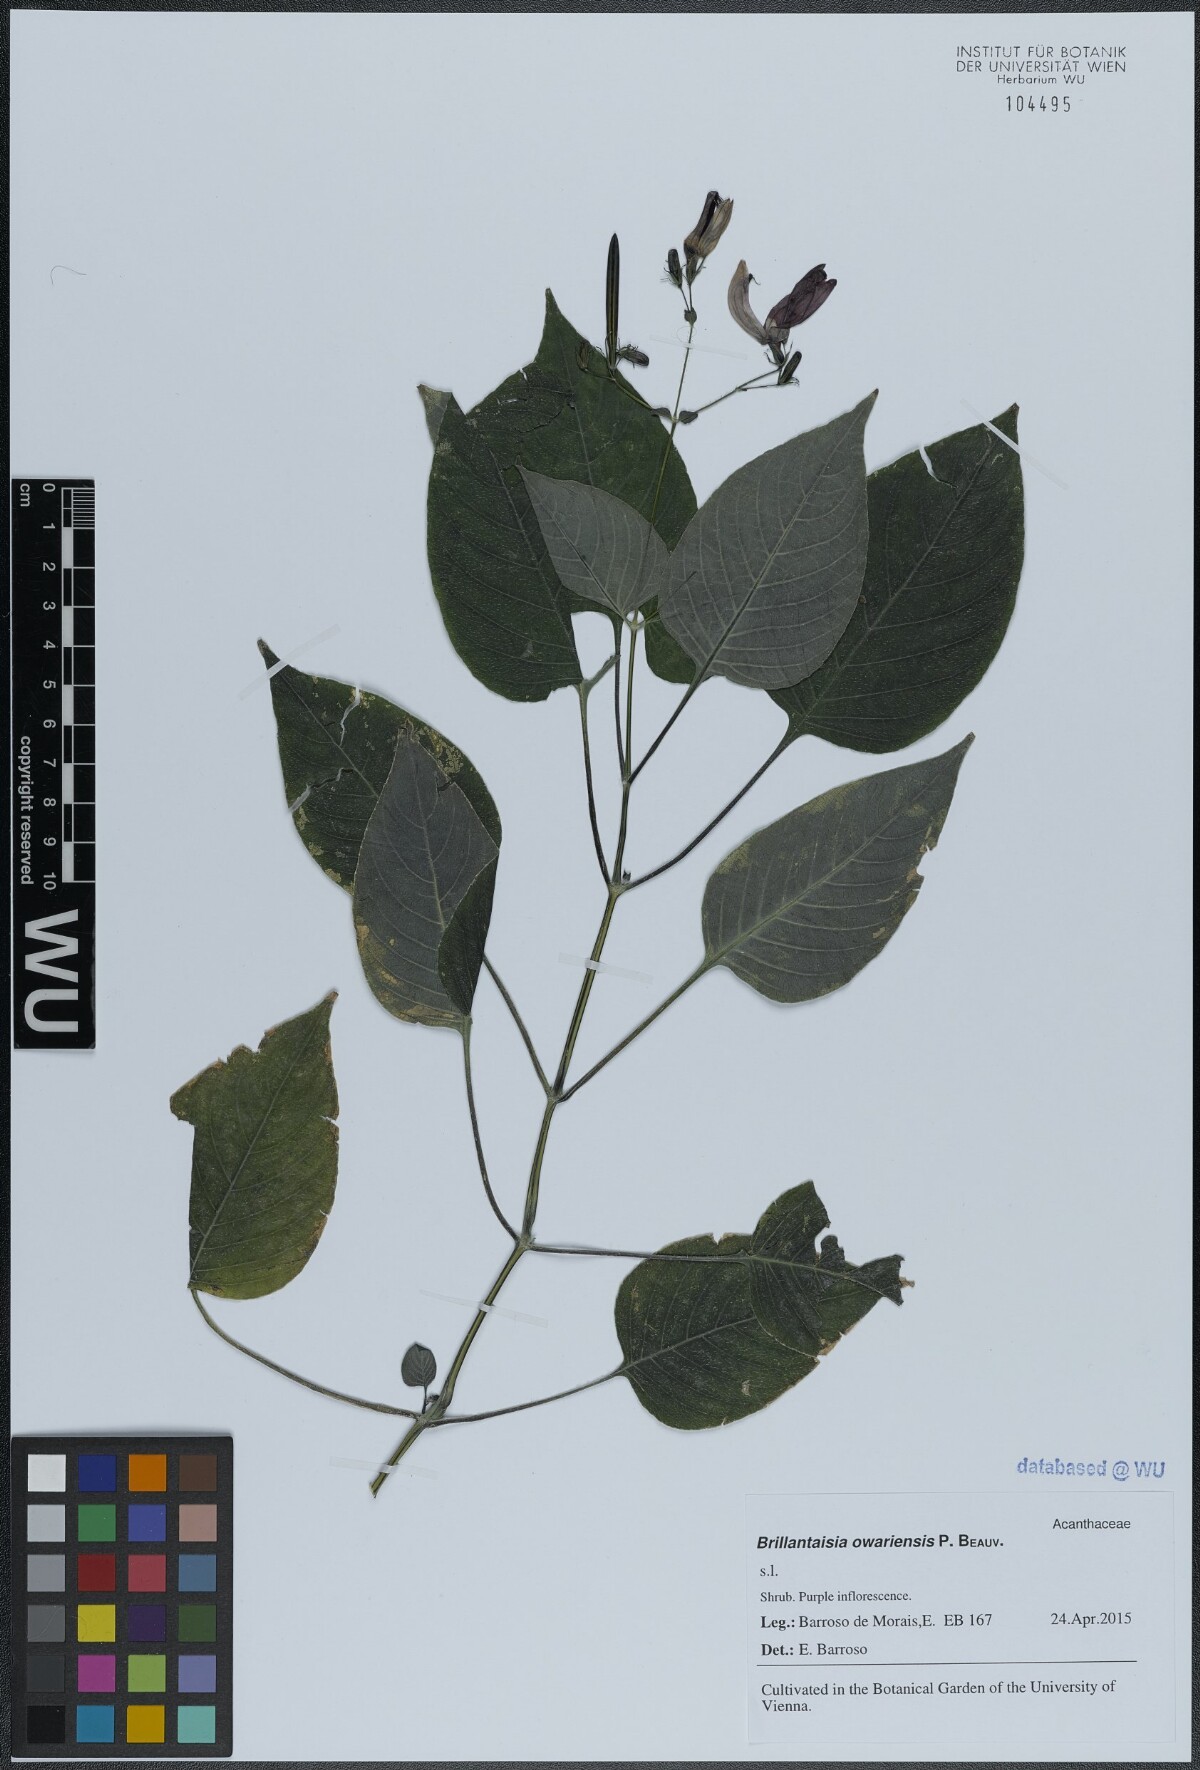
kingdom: Plantae
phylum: Tracheophyta
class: Magnoliopsida
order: Lamiales
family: Acanthaceae
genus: Brillantaisia
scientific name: Brillantaisia owariensis
